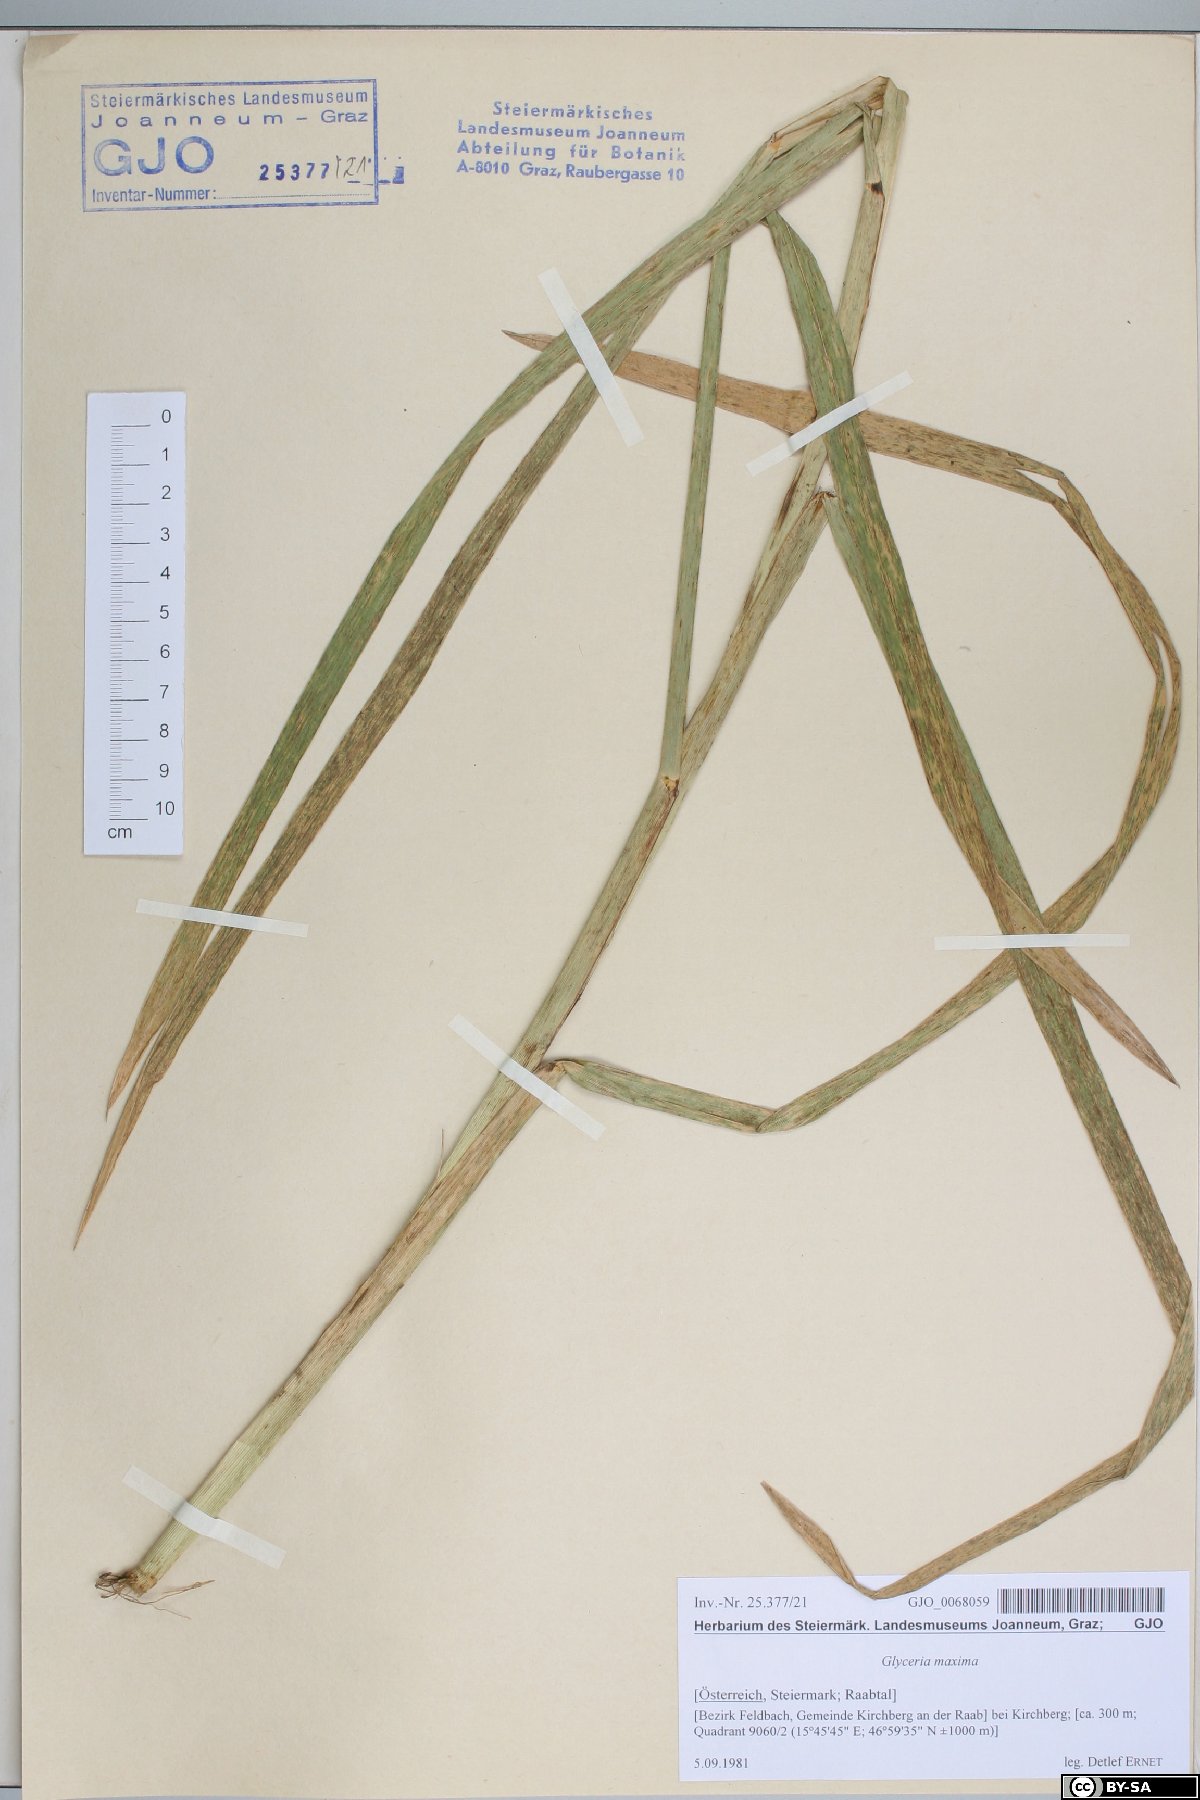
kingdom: Plantae
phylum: Tracheophyta
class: Liliopsida
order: Poales
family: Poaceae
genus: Glyceria
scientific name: Glyceria maxima
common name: Reed mannagrass
